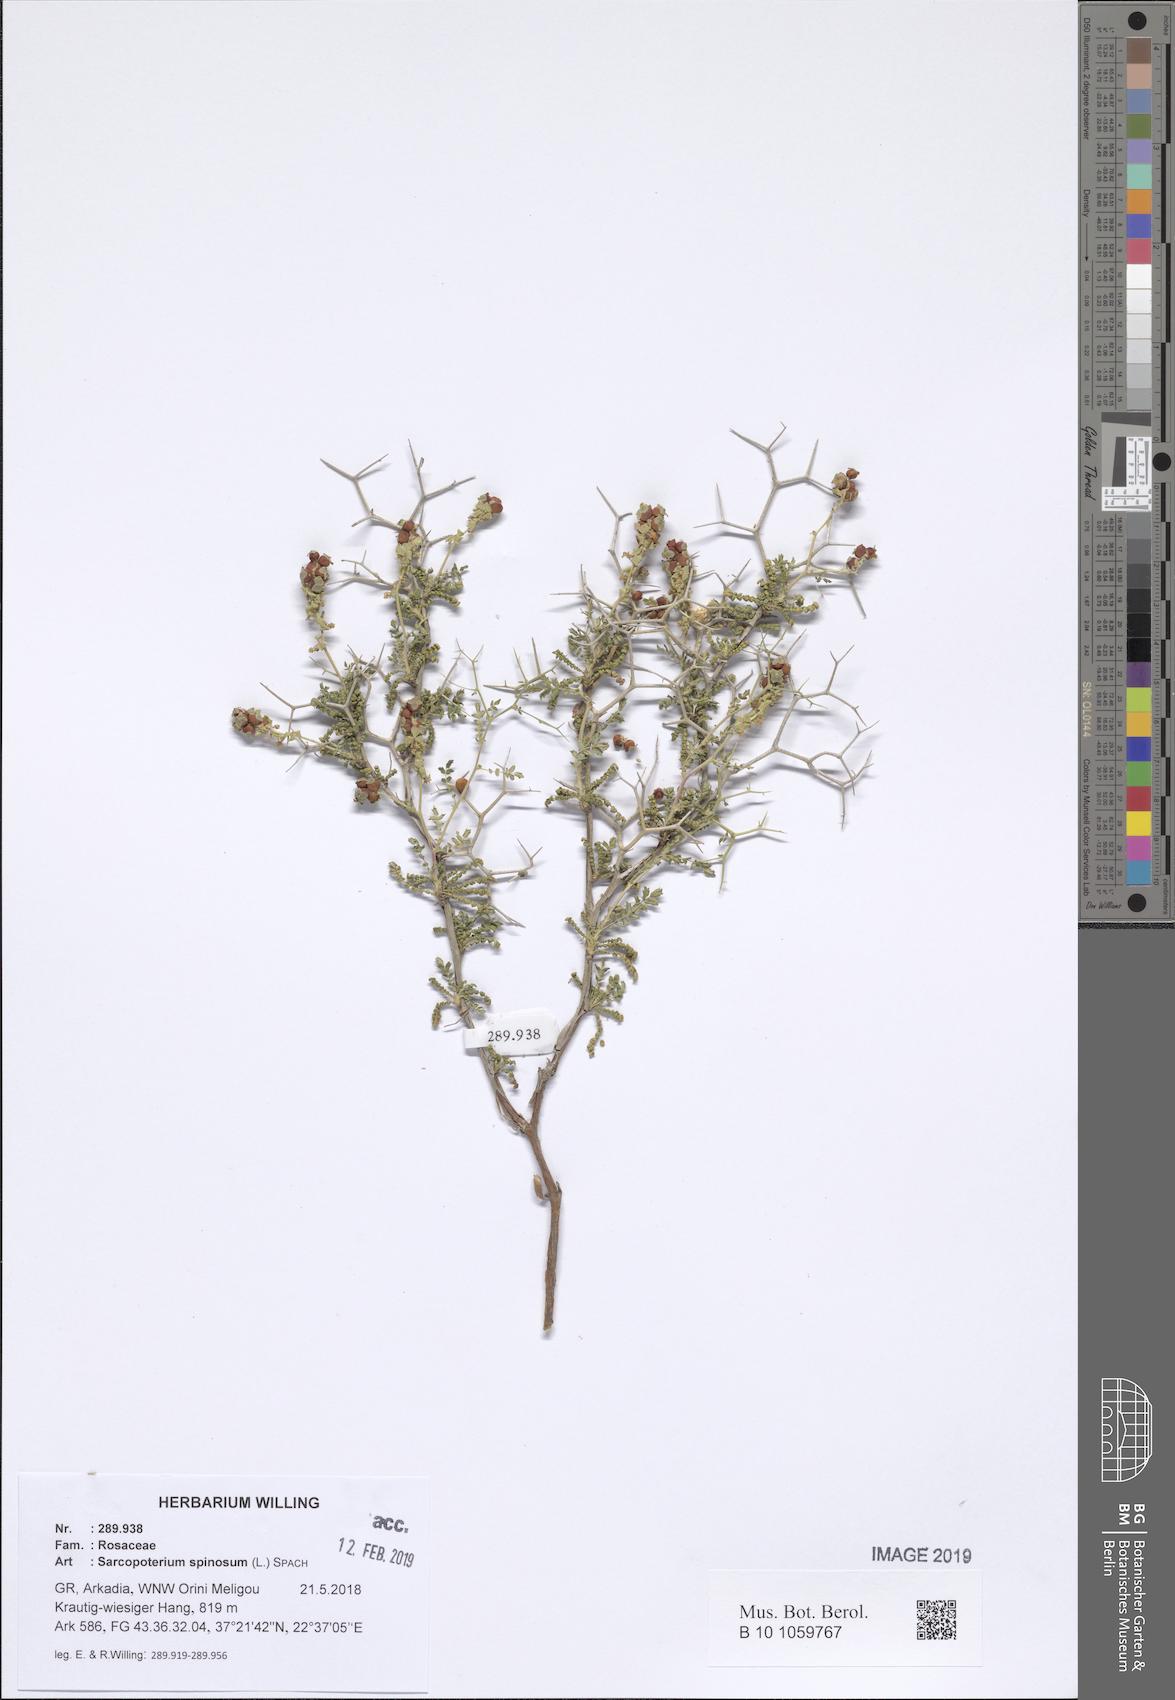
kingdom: Plantae
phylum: Tracheophyta
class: Magnoliopsida
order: Rosales
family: Rosaceae
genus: Sarcopoterium
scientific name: Sarcopoterium spinosum
